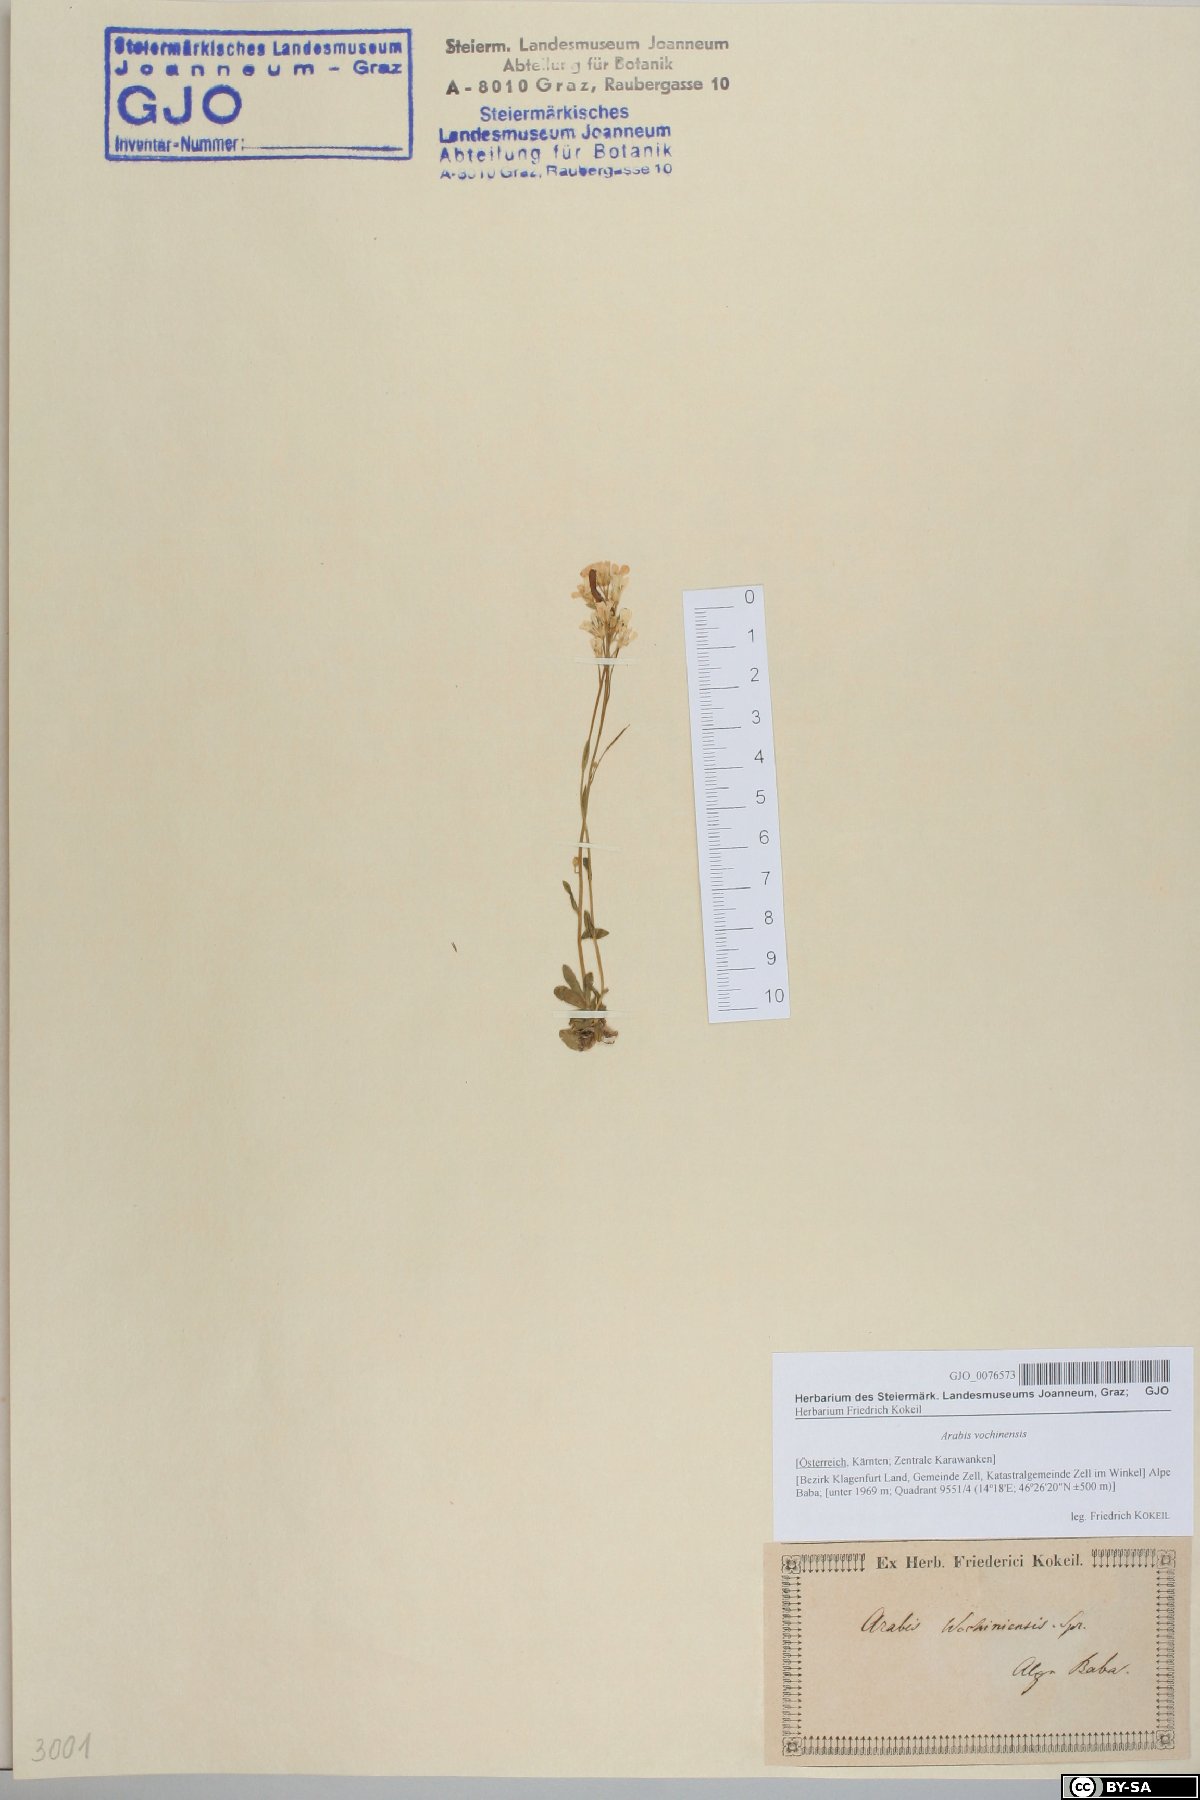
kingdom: Plantae
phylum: Tracheophyta
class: Magnoliopsida
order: Brassicales
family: Brassicaceae
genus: Arabis
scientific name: Arabis vochinensis
